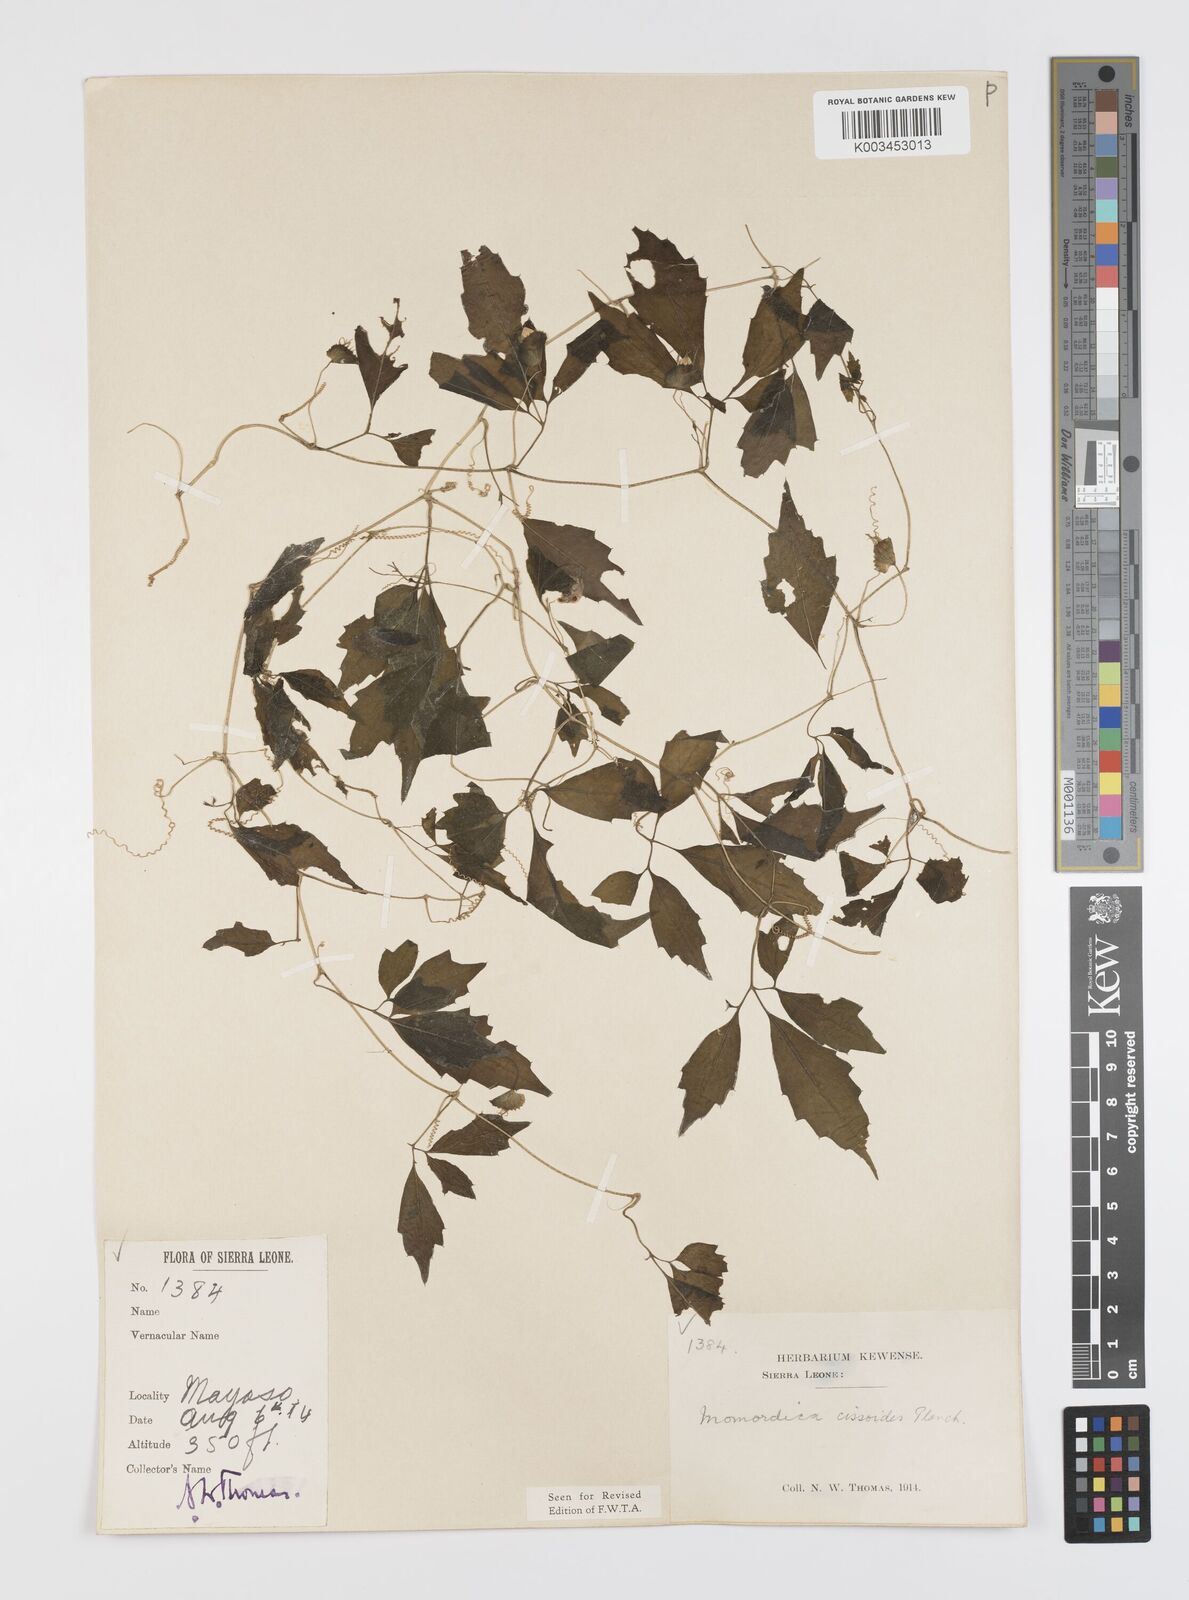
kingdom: Plantae
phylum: Tracheophyta
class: Magnoliopsida
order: Cucurbitales
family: Cucurbitaceae
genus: Momordica
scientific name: Momordica cissoides
